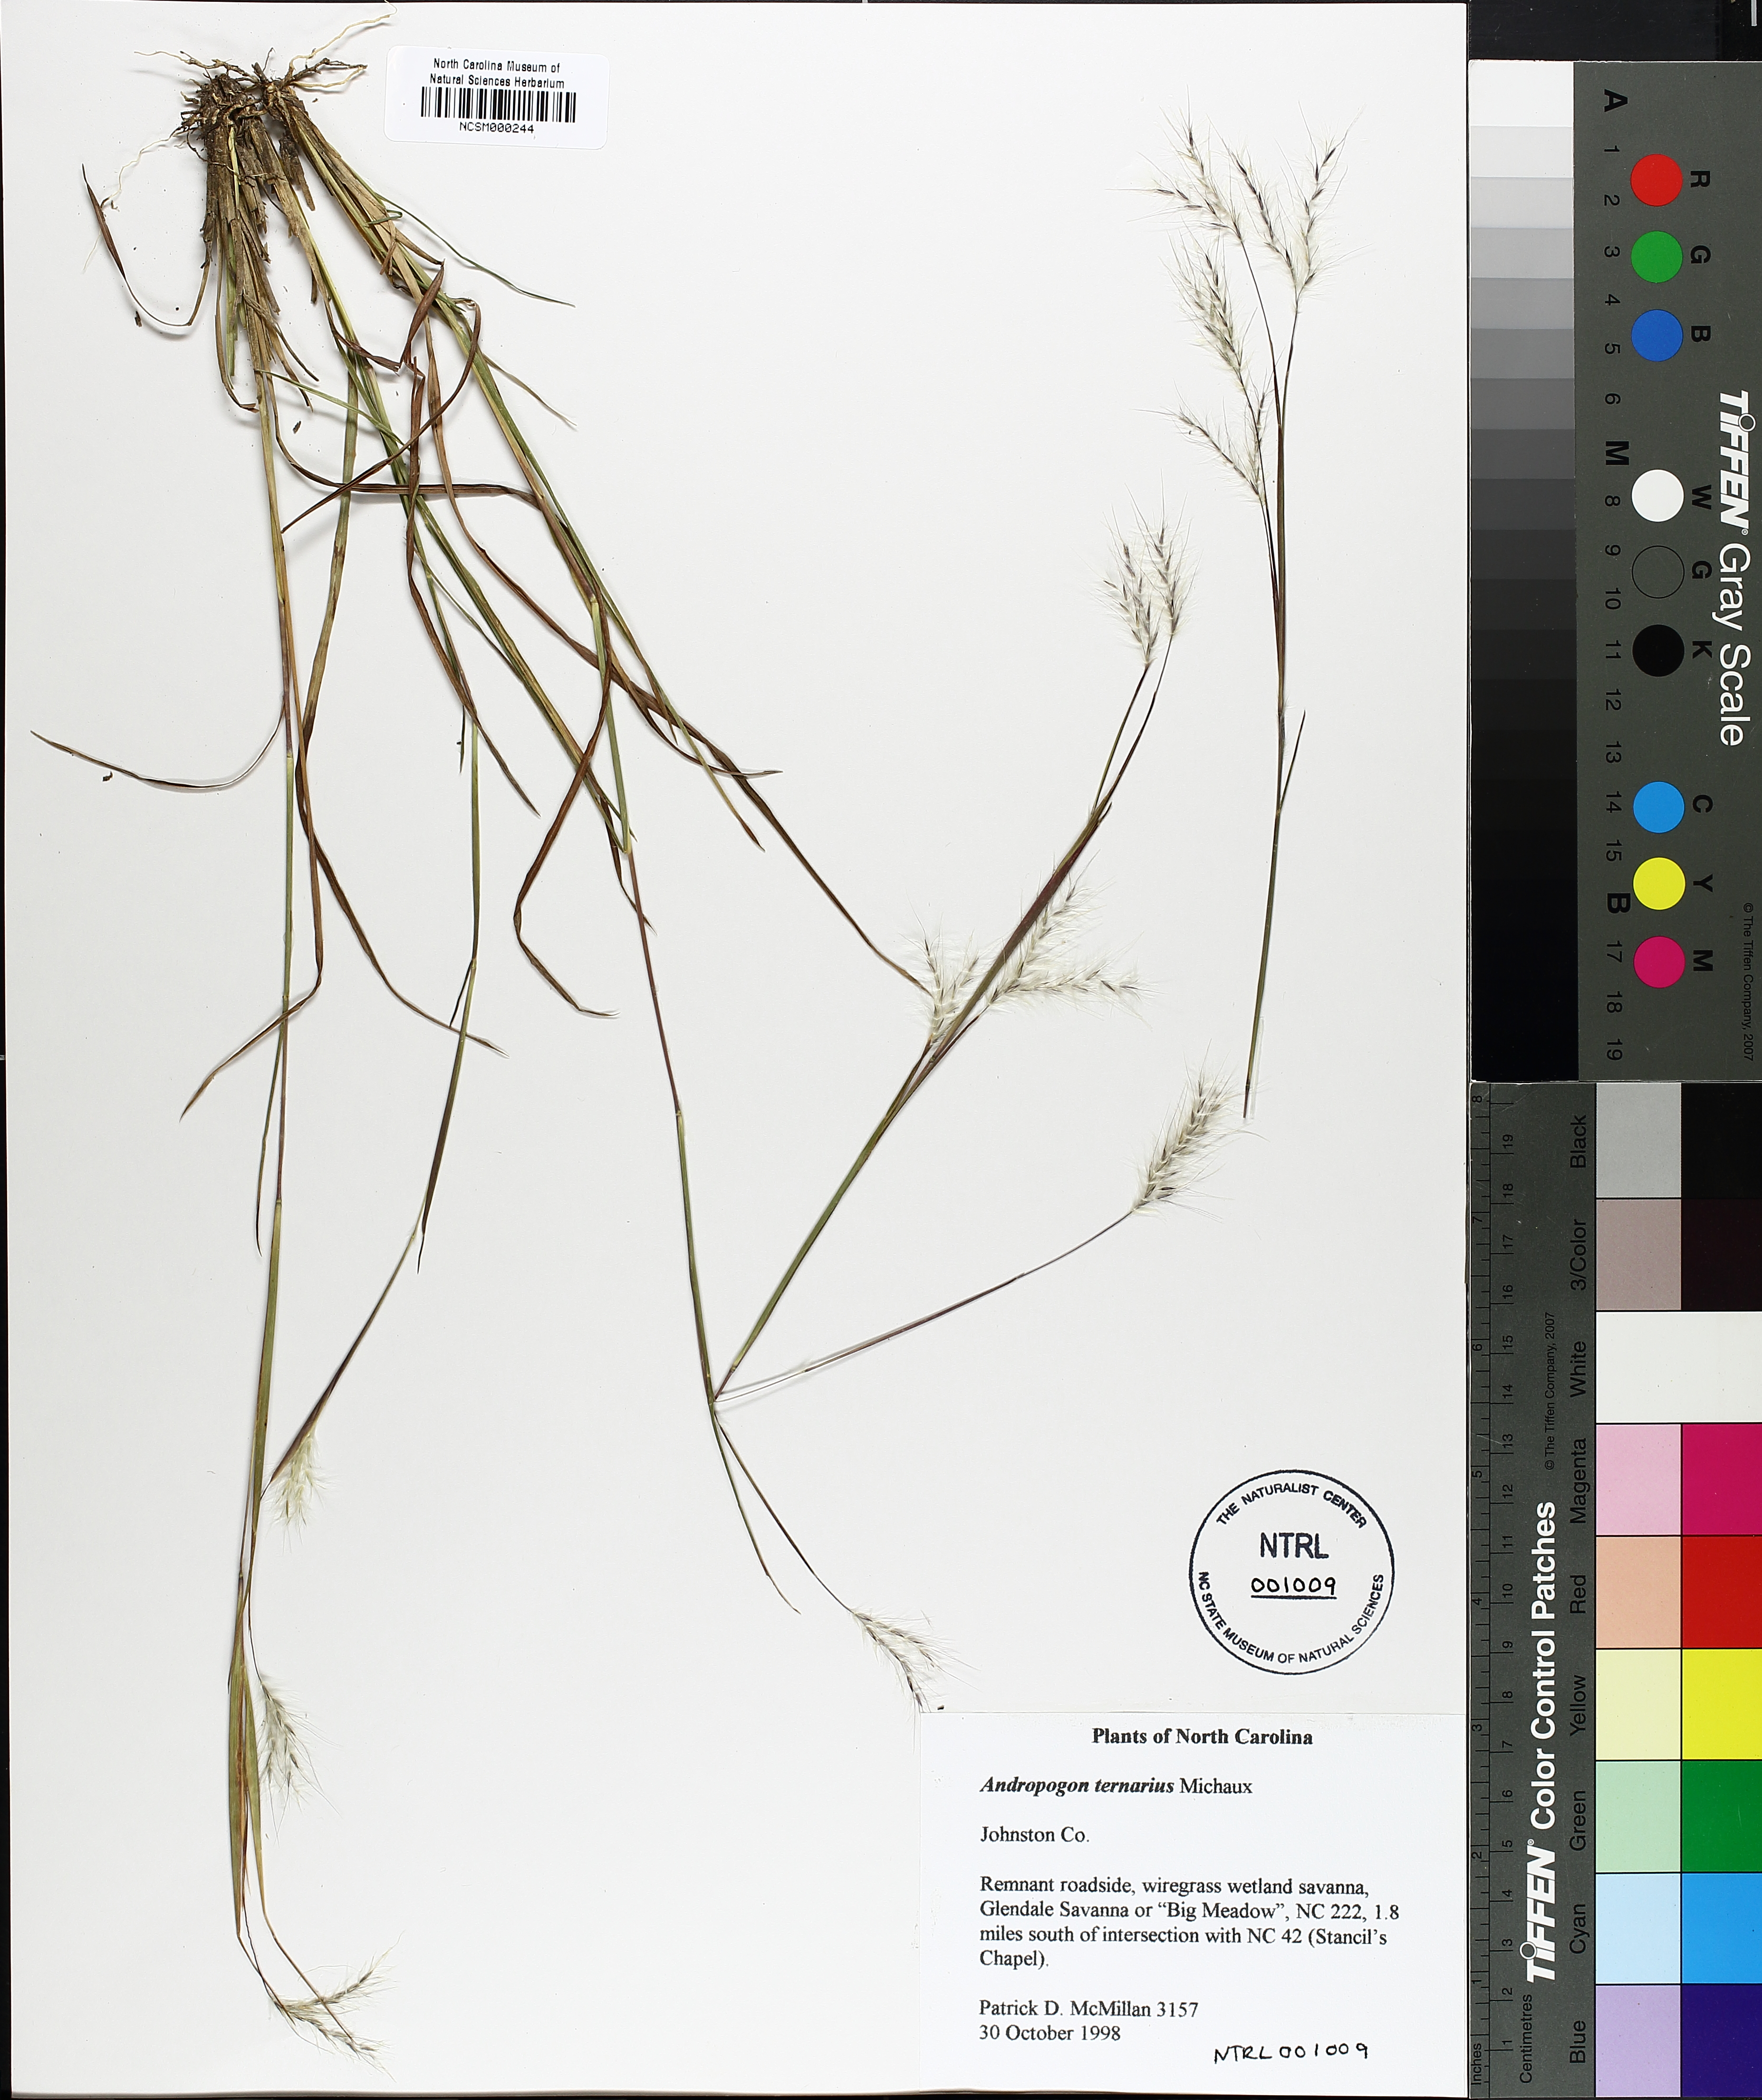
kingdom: Plantae
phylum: Tracheophyta
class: Liliopsida
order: Poales
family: Poaceae
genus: Andropogon
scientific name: Andropogon ternarius
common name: Split bluestem
